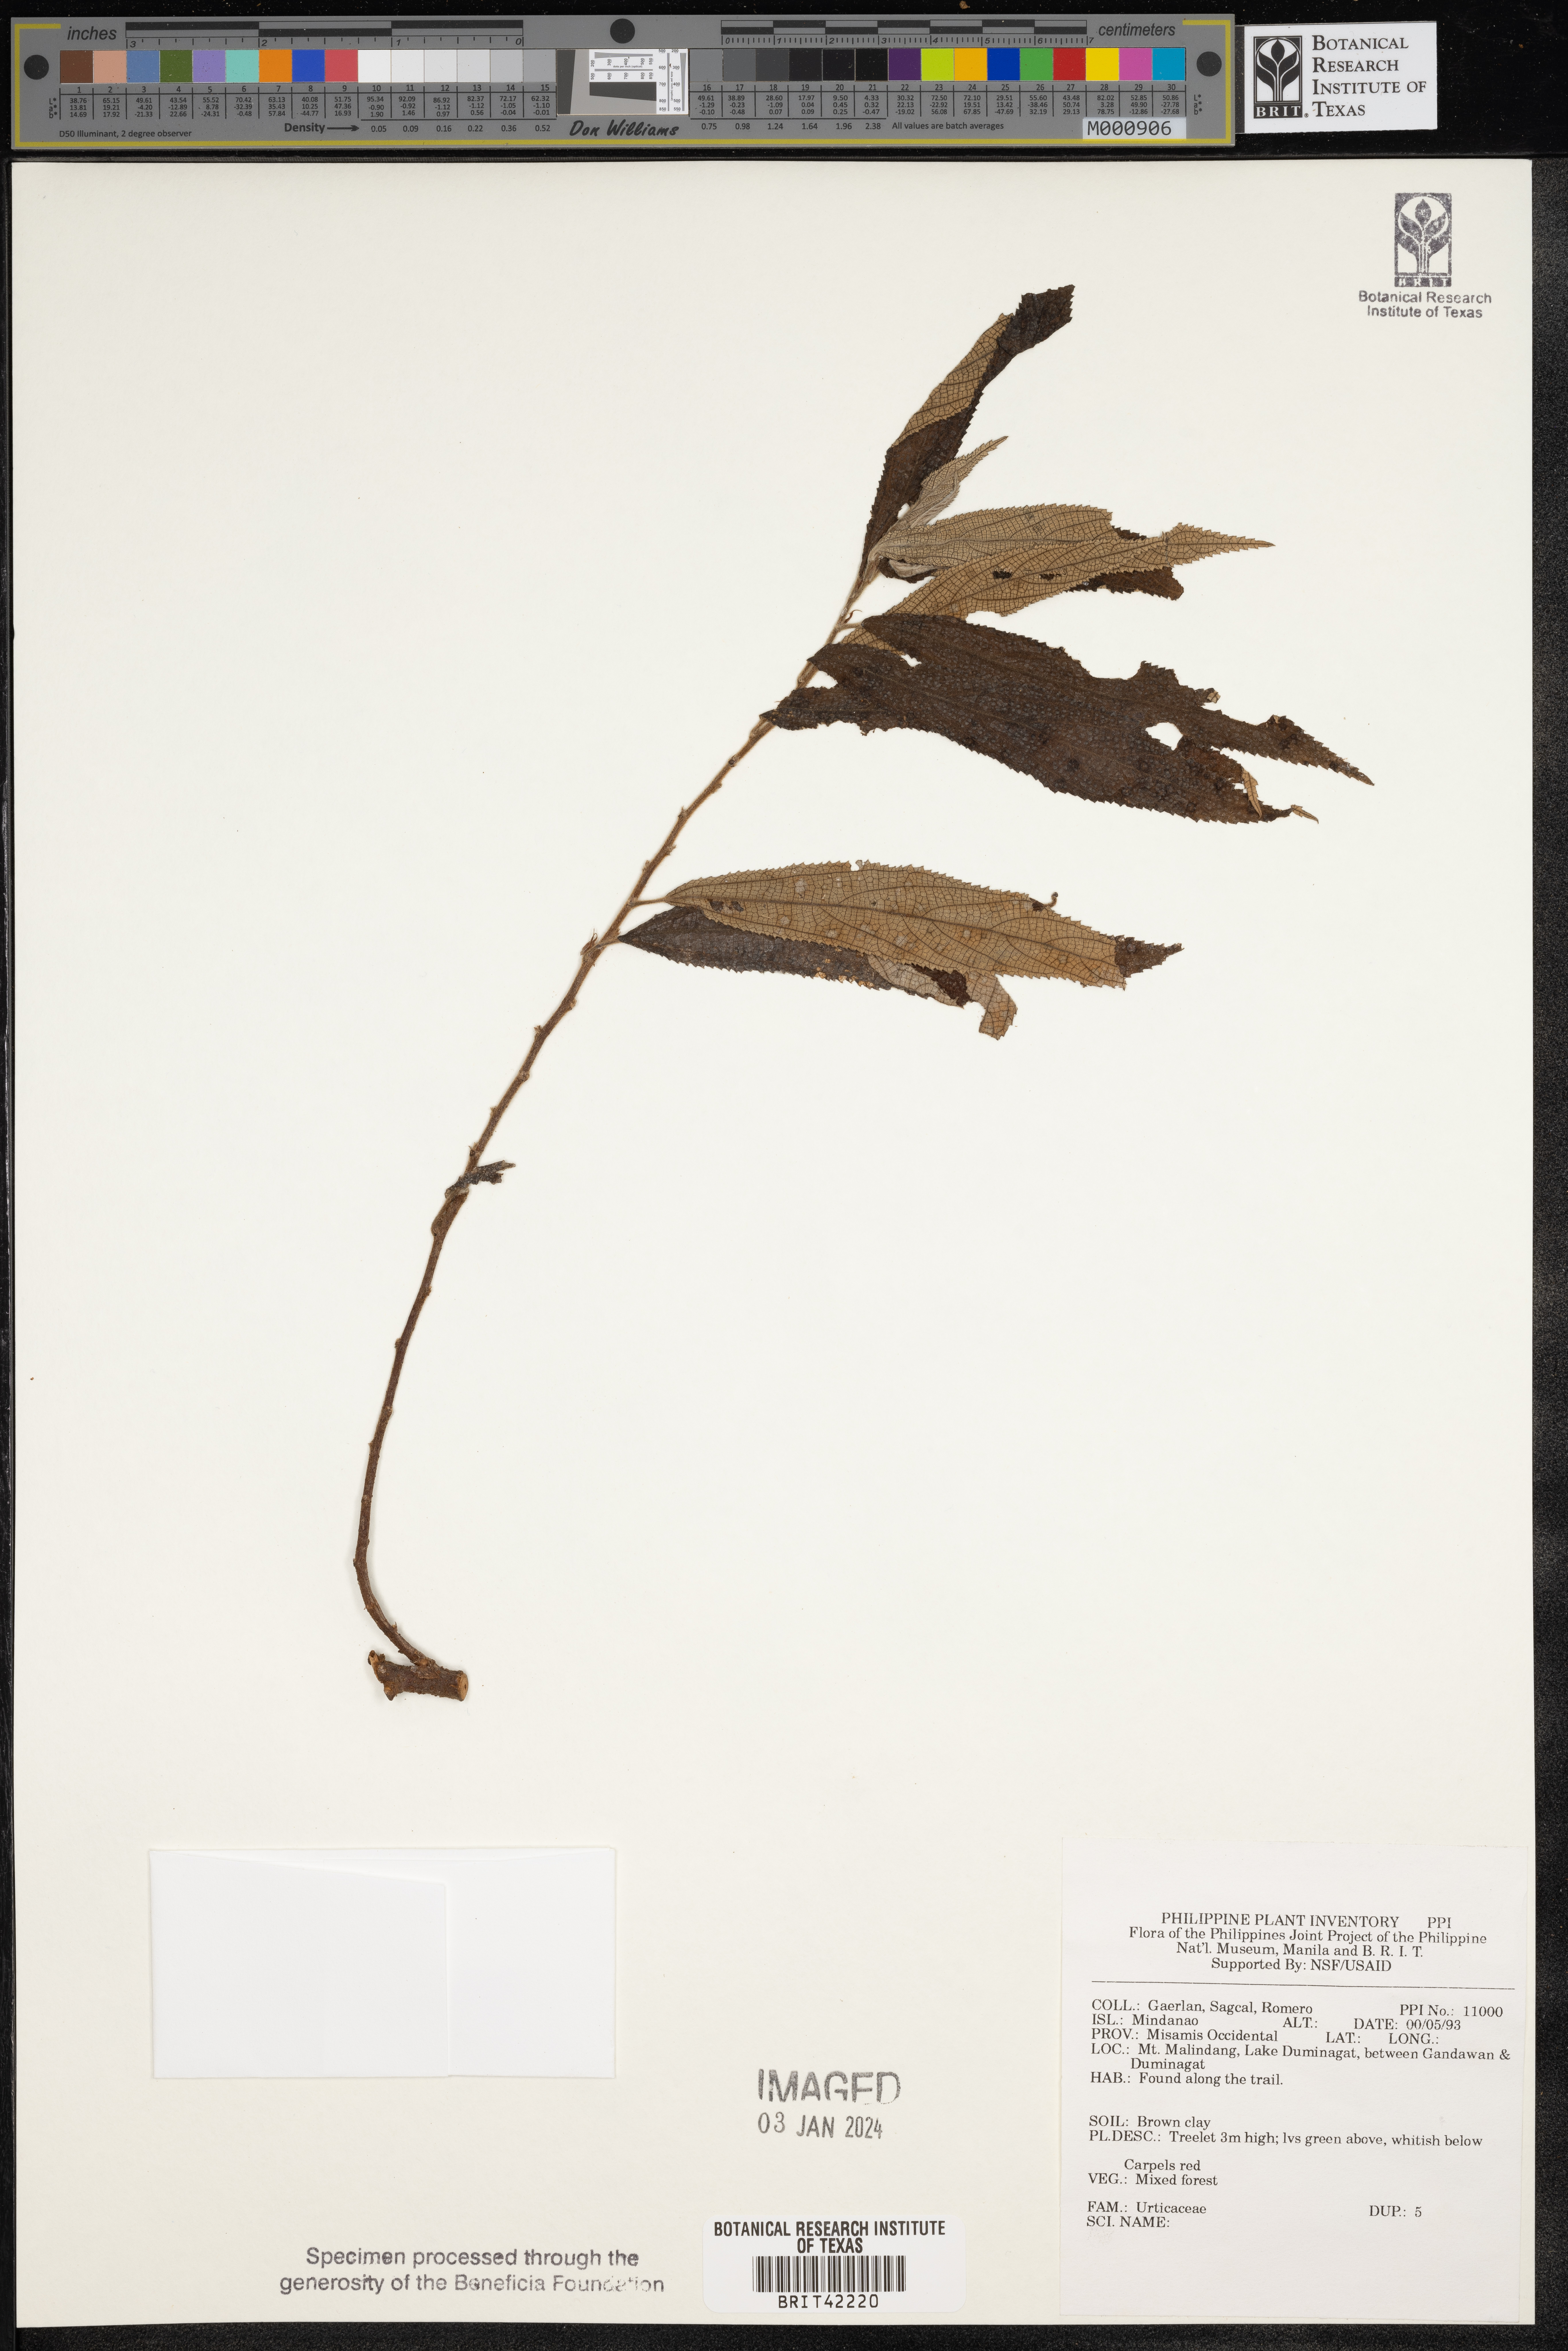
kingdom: Plantae
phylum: Tracheophyta
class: Magnoliopsida
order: Rosales
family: Urticaceae
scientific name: Urticaceae
